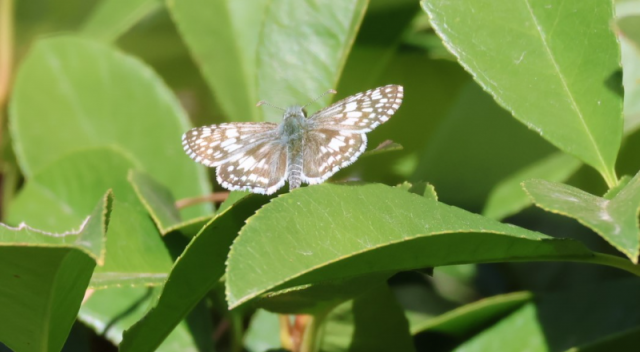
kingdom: Animalia
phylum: Arthropoda
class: Insecta
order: Lepidoptera
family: Hesperiidae
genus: Pyrgus
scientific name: Pyrgus communis
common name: Common Checkered-Skipper
